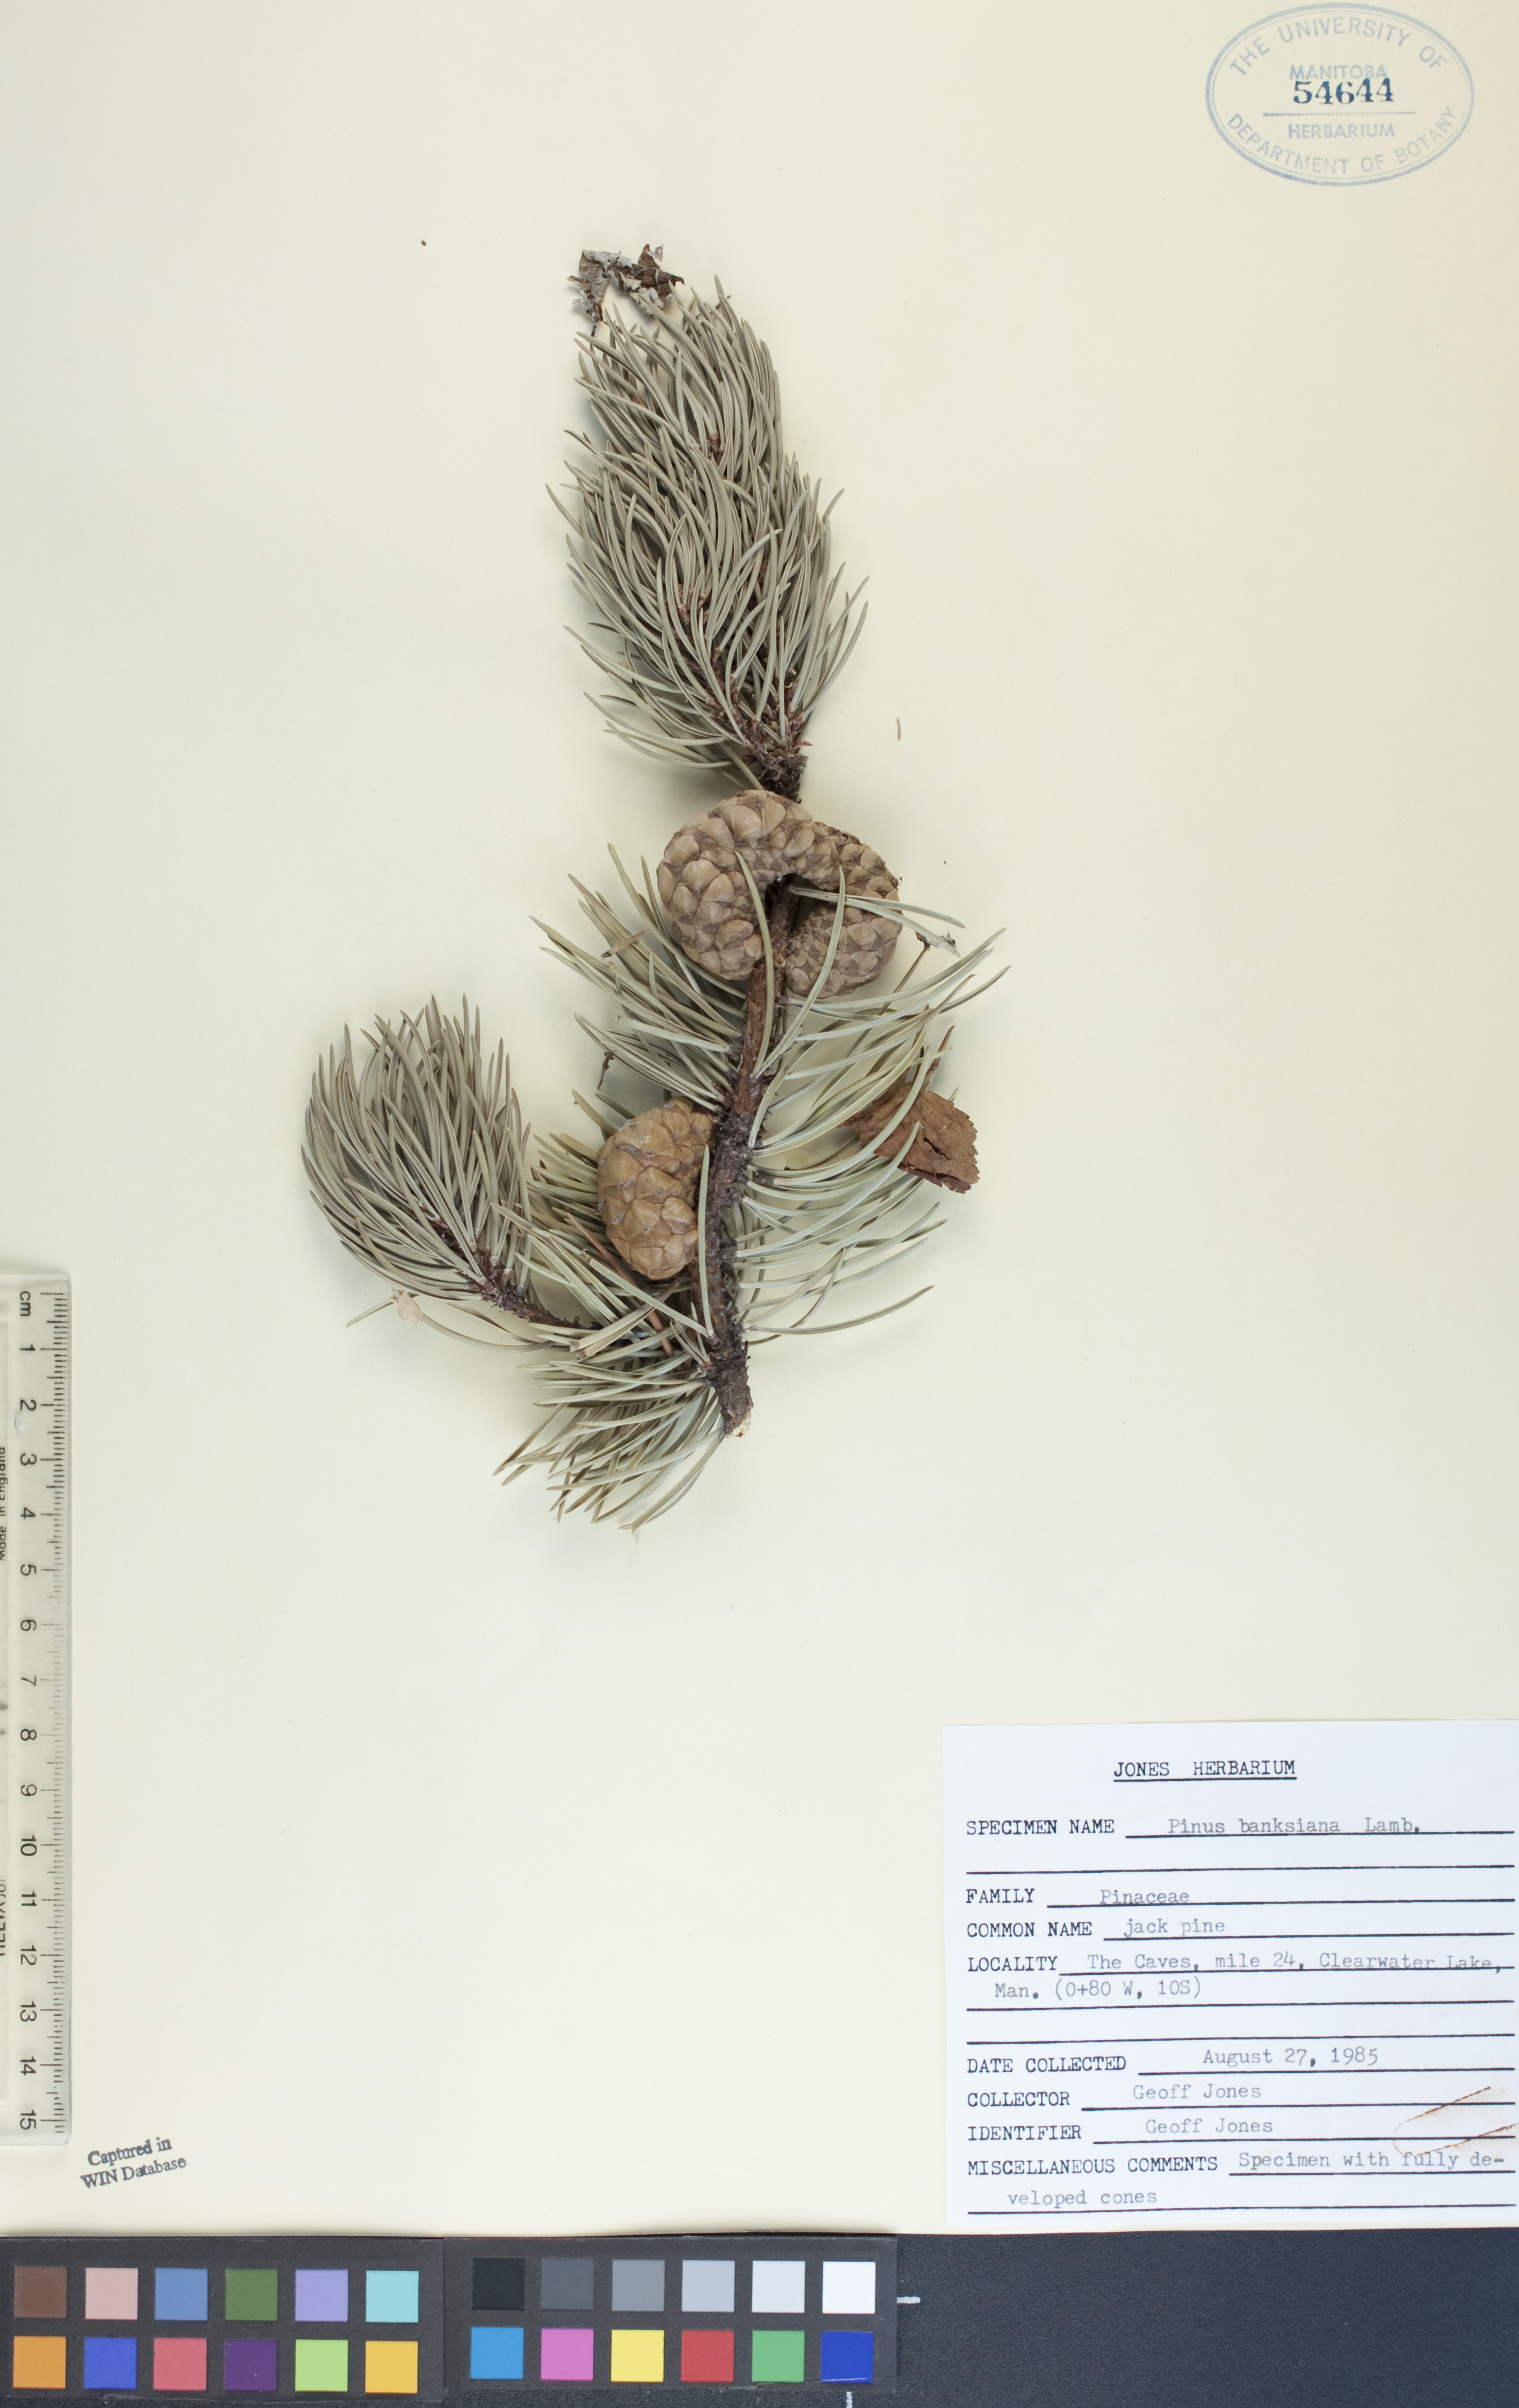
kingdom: Plantae
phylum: Tracheophyta
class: Pinopsida
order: Pinales
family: Pinaceae
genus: Pinus
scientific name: Pinus banksiana
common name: Jack pine
